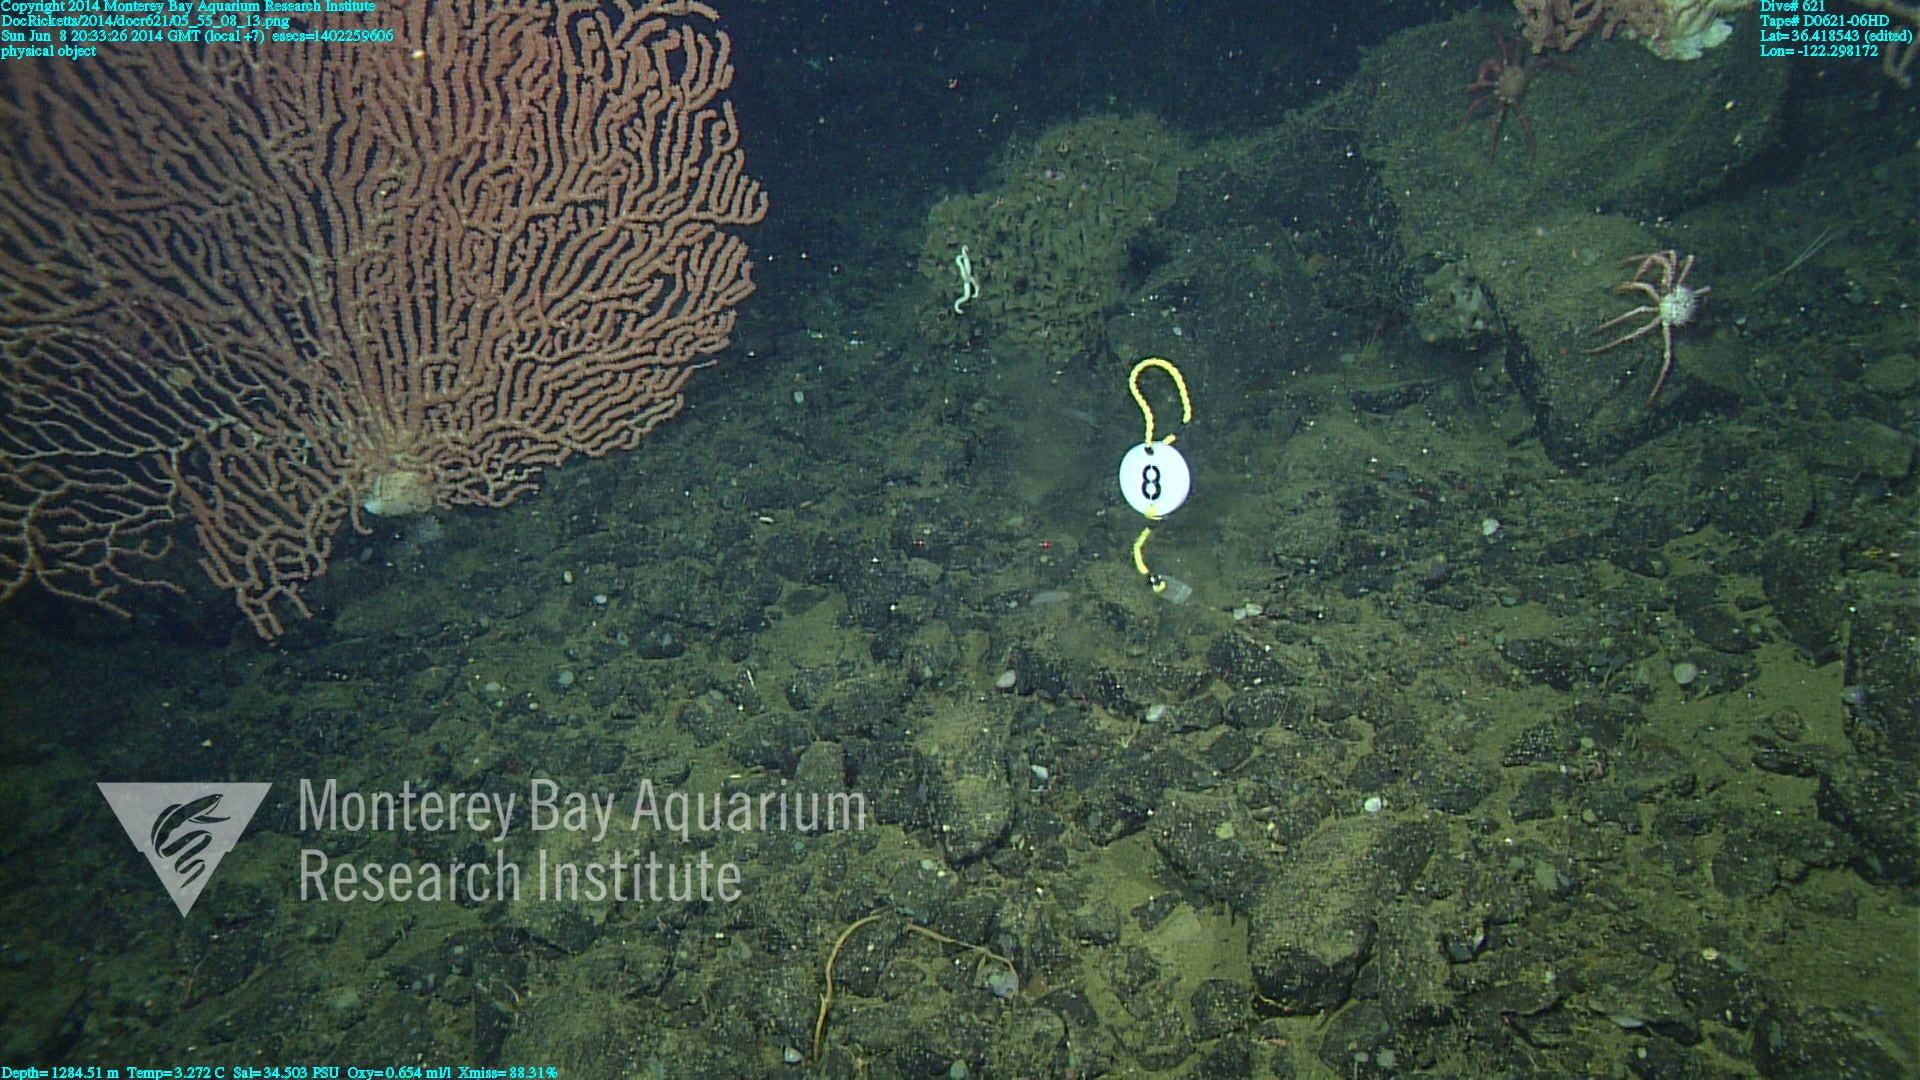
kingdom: Animalia
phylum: Cnidaria
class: Anthozoa
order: Scleralcyonacea
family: Keratoisididae
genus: Keratoisis
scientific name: Keratoisis
